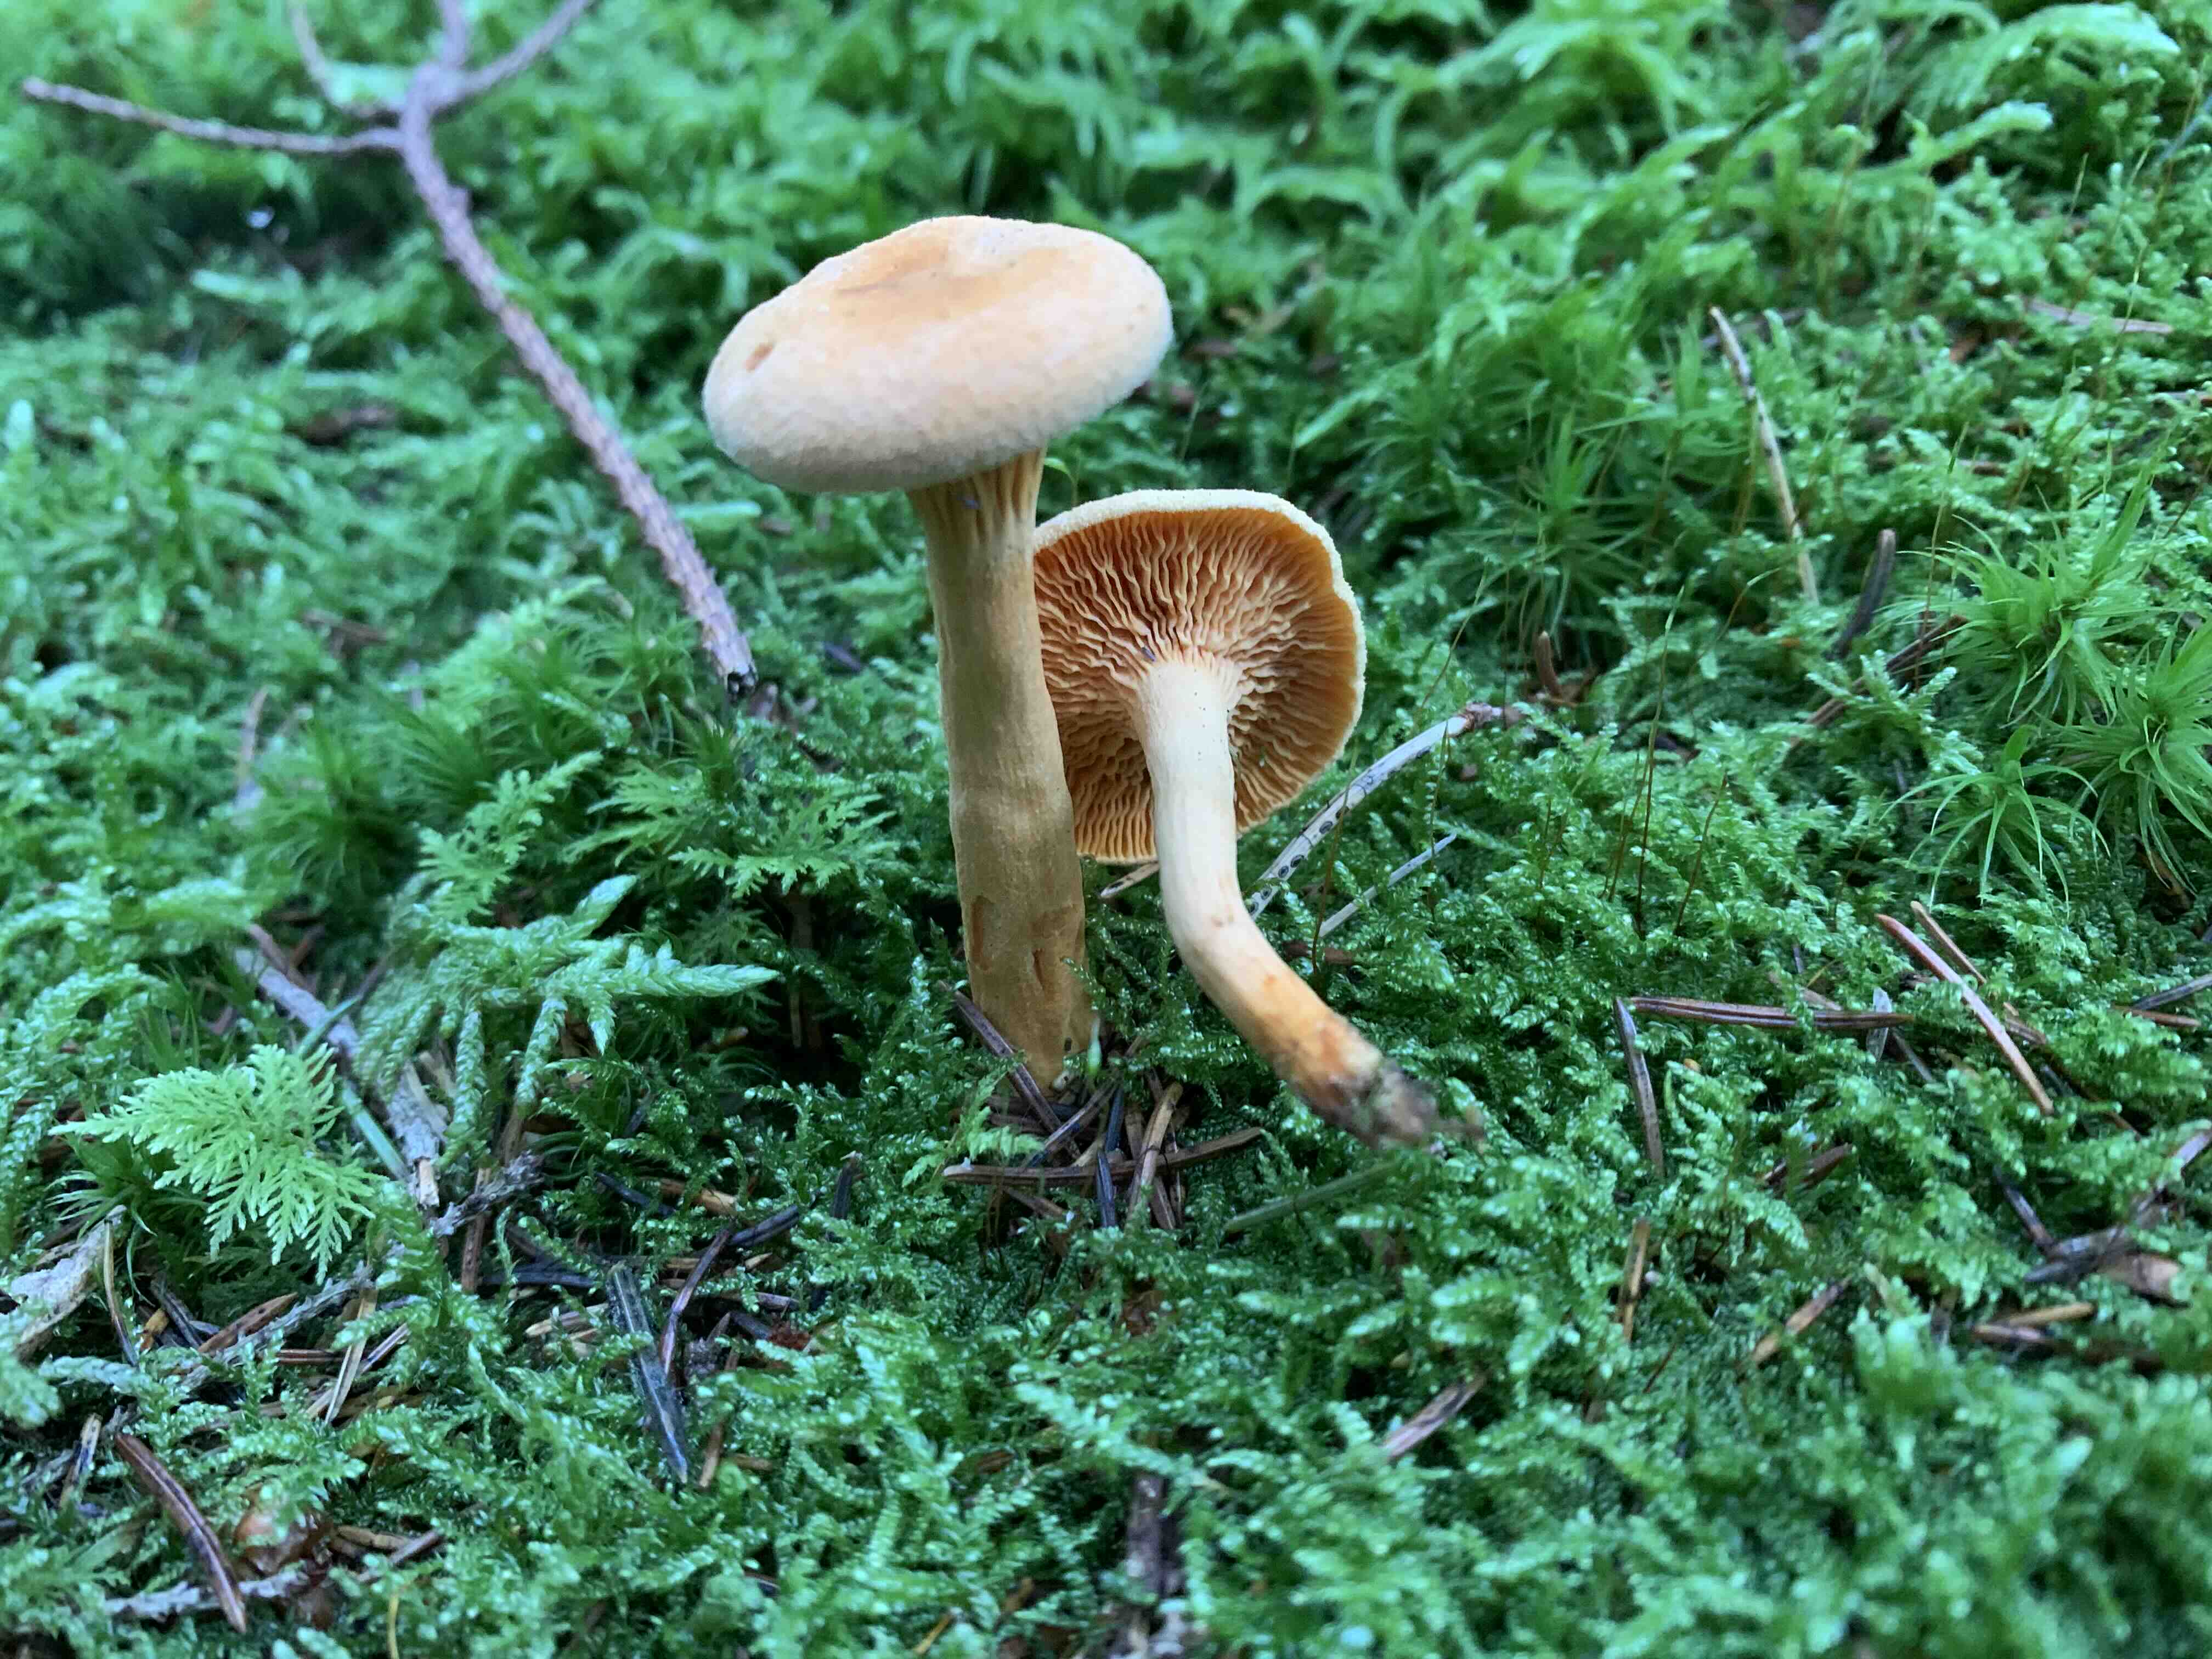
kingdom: Fungi
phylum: Basidiomycota
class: Agaricomycetes
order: Boletales
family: Hygrophoropsidaceae
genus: Hygrophoropsis
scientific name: Hygrophoropsis aurantiaca
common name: almindelig orangekantarel
